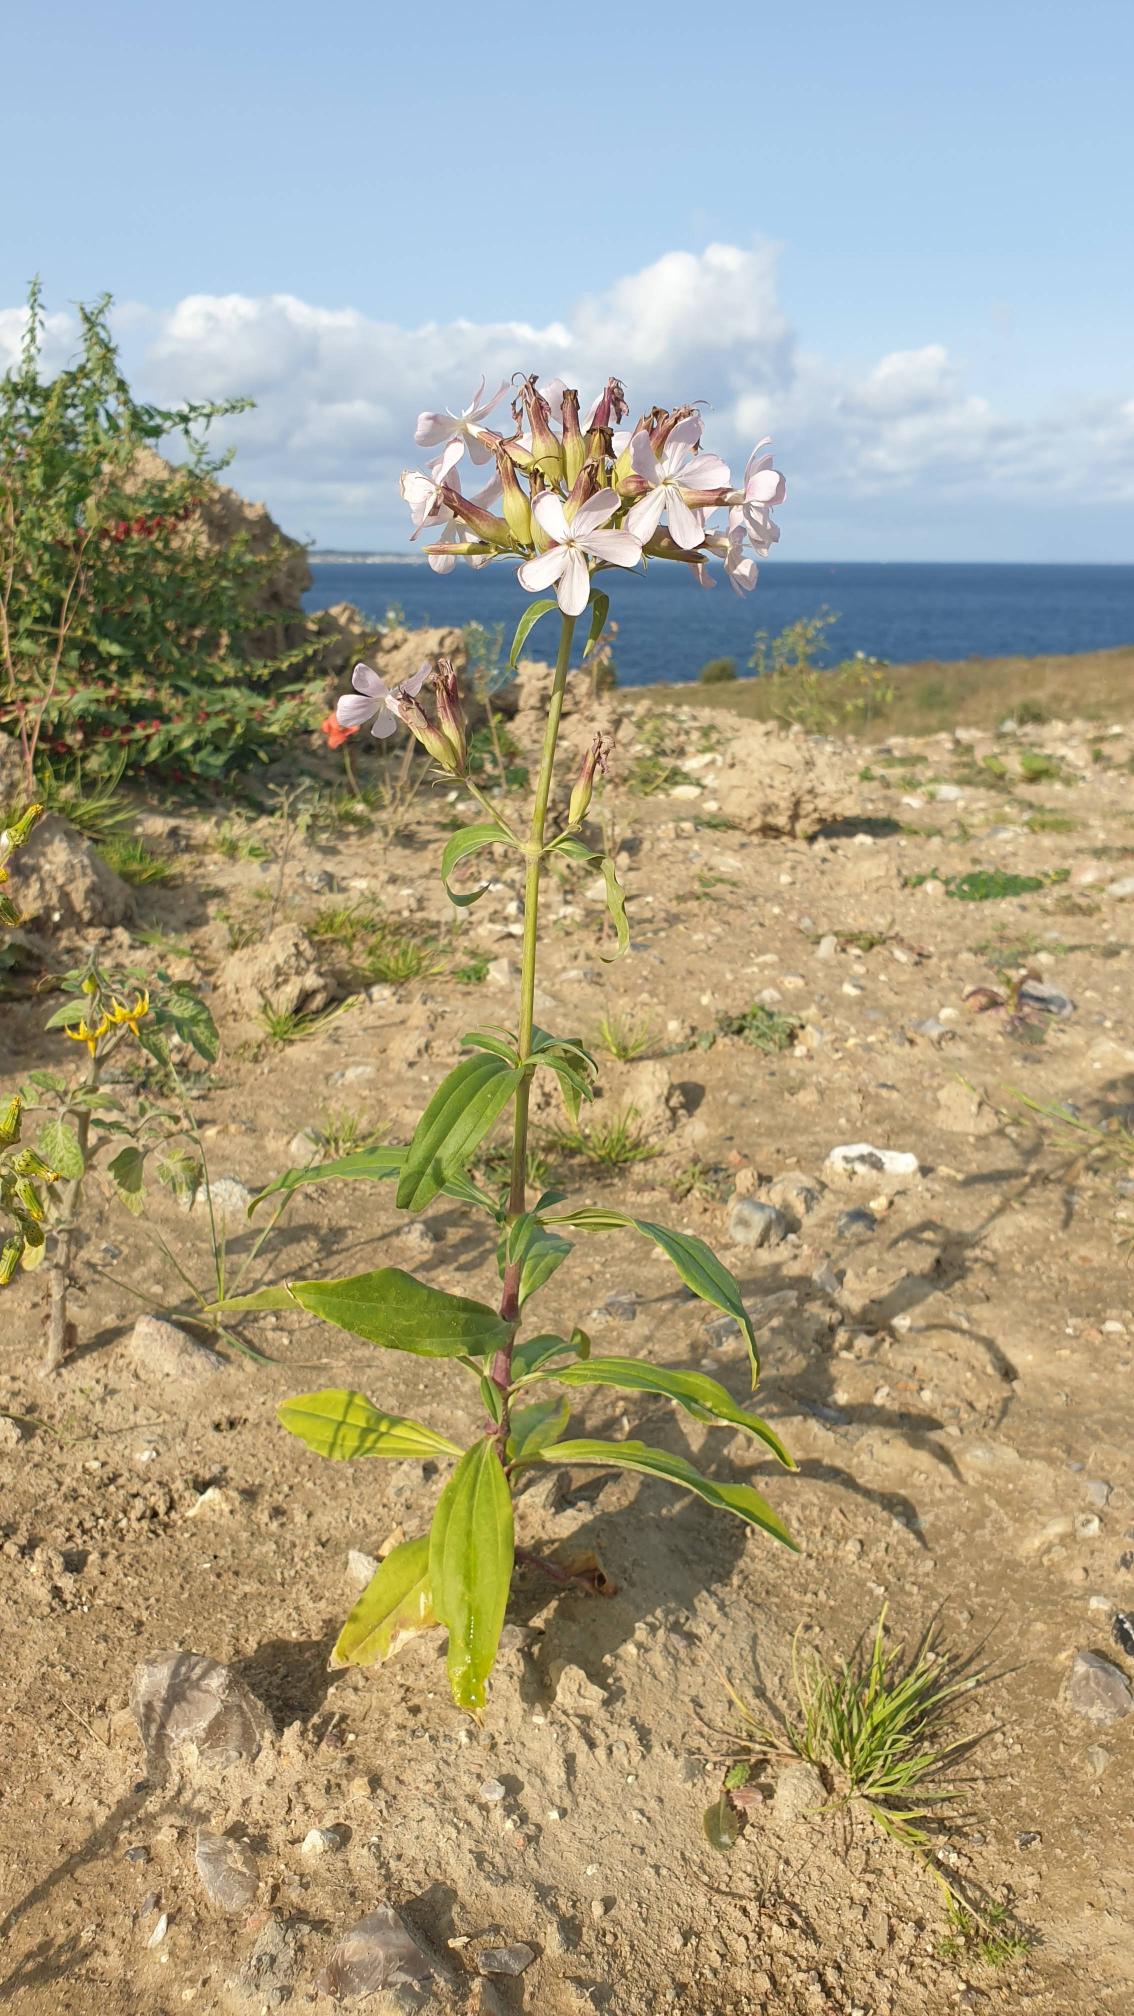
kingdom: Plantae
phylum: Tracheophyta
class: Magnoliopsida
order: Caryophyllales
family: Caryophyllaceae
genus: Saponaria
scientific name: Saponaria officinalis
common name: Sæbeurt
